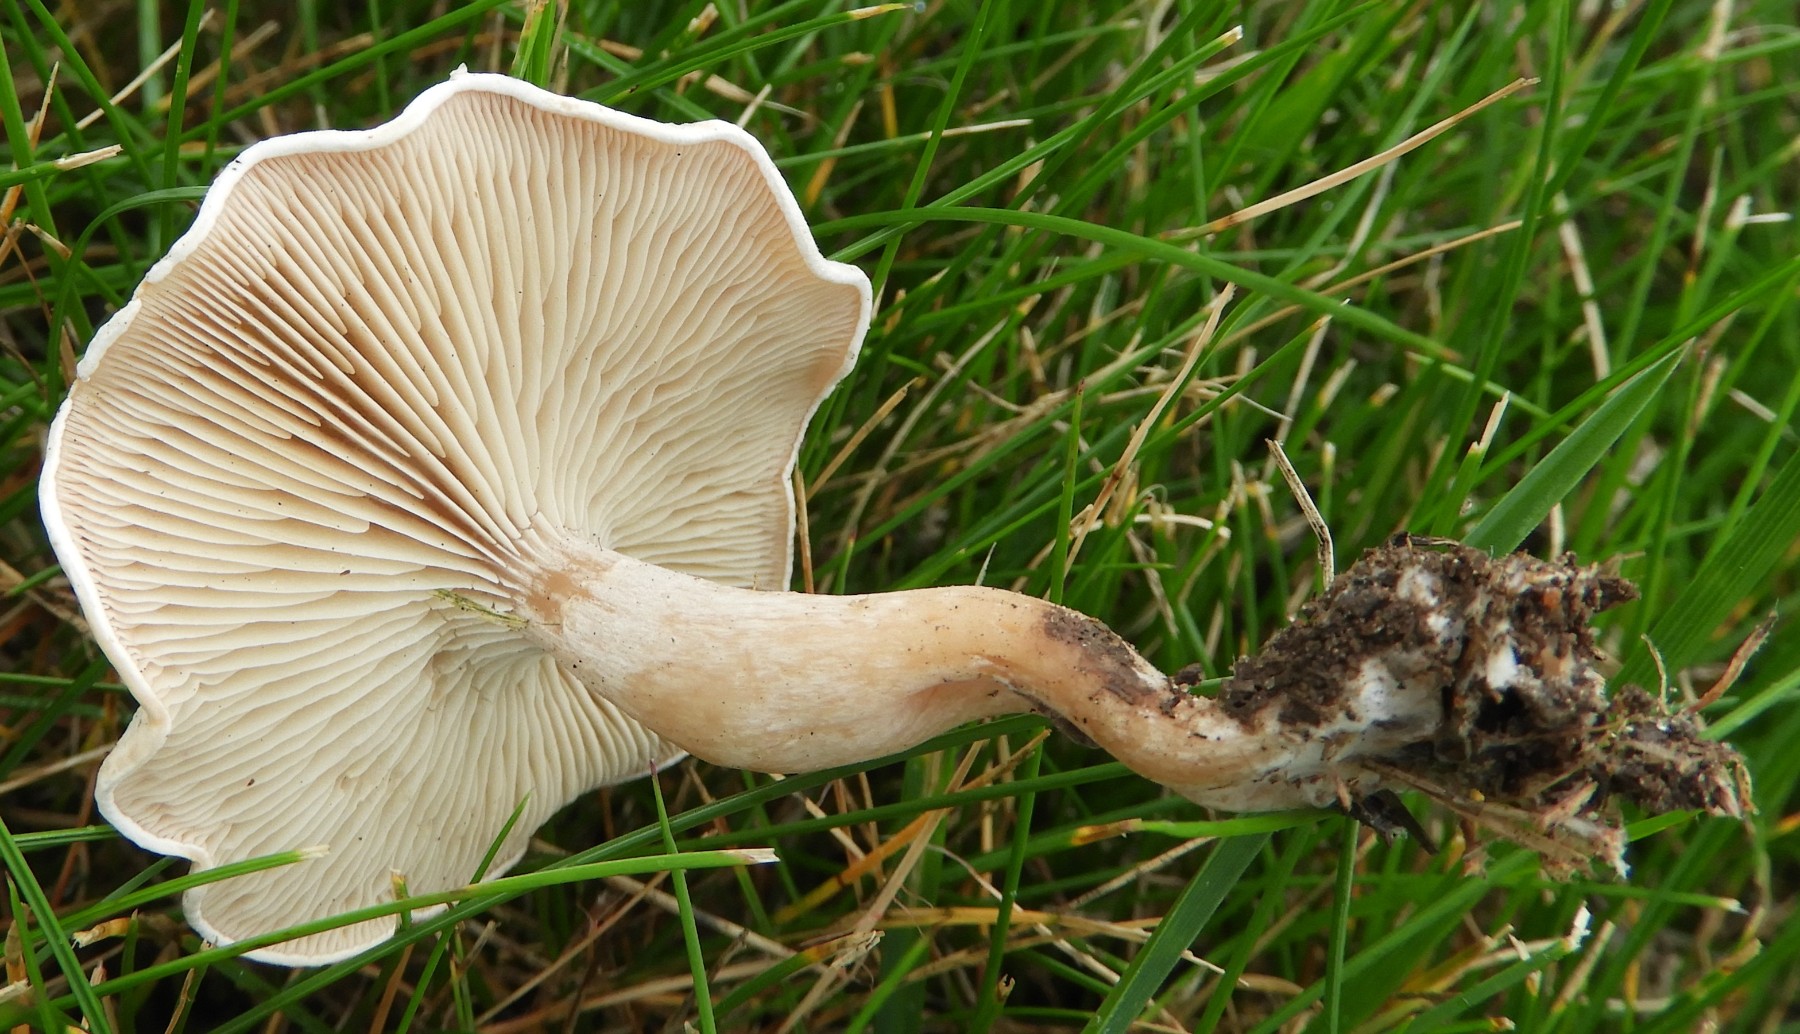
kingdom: Fungi
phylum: Basidiomycota
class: Agaricomycetes
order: Agaricales
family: Tricholomataceae
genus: Clitocybe
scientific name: Clitocybe rivulosa
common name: eng-tragthat
